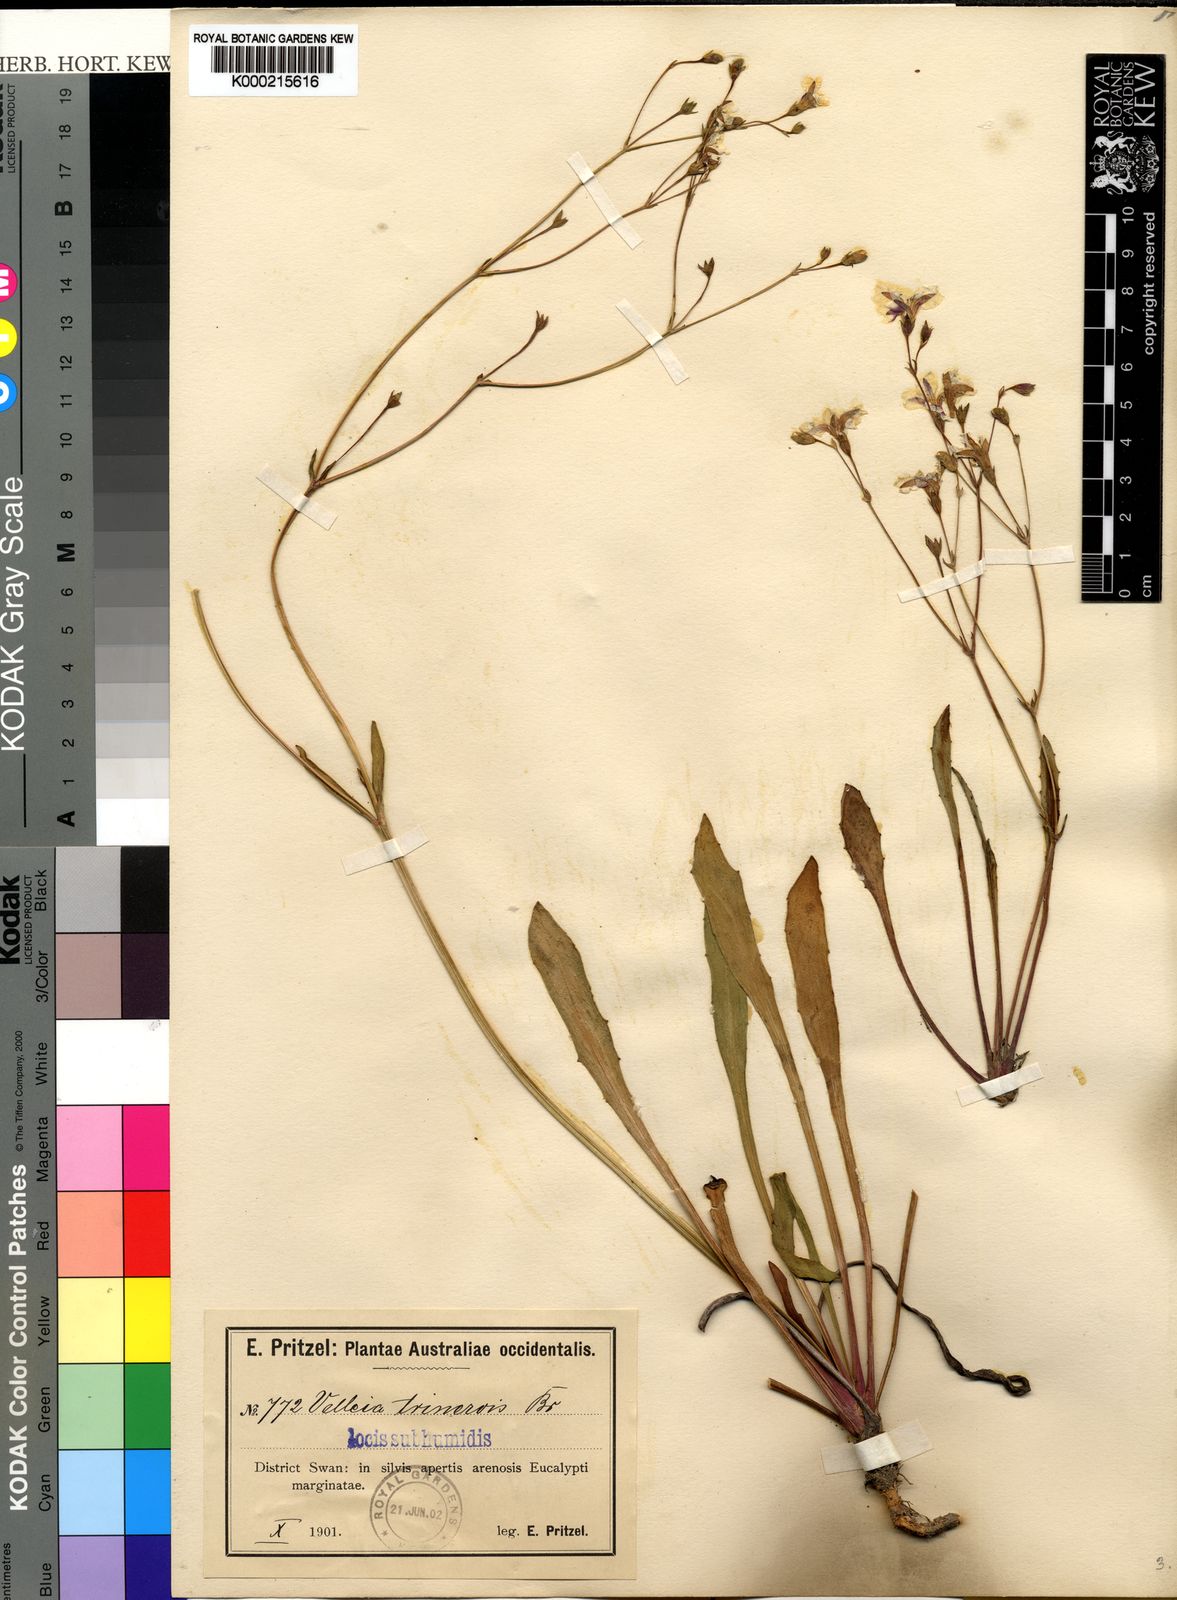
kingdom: Plantae
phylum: Tracheophyta
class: Magnoliopsida
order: Asterales
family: Goodeniaceae
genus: Goodenia
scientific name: Goodenia trinervis
